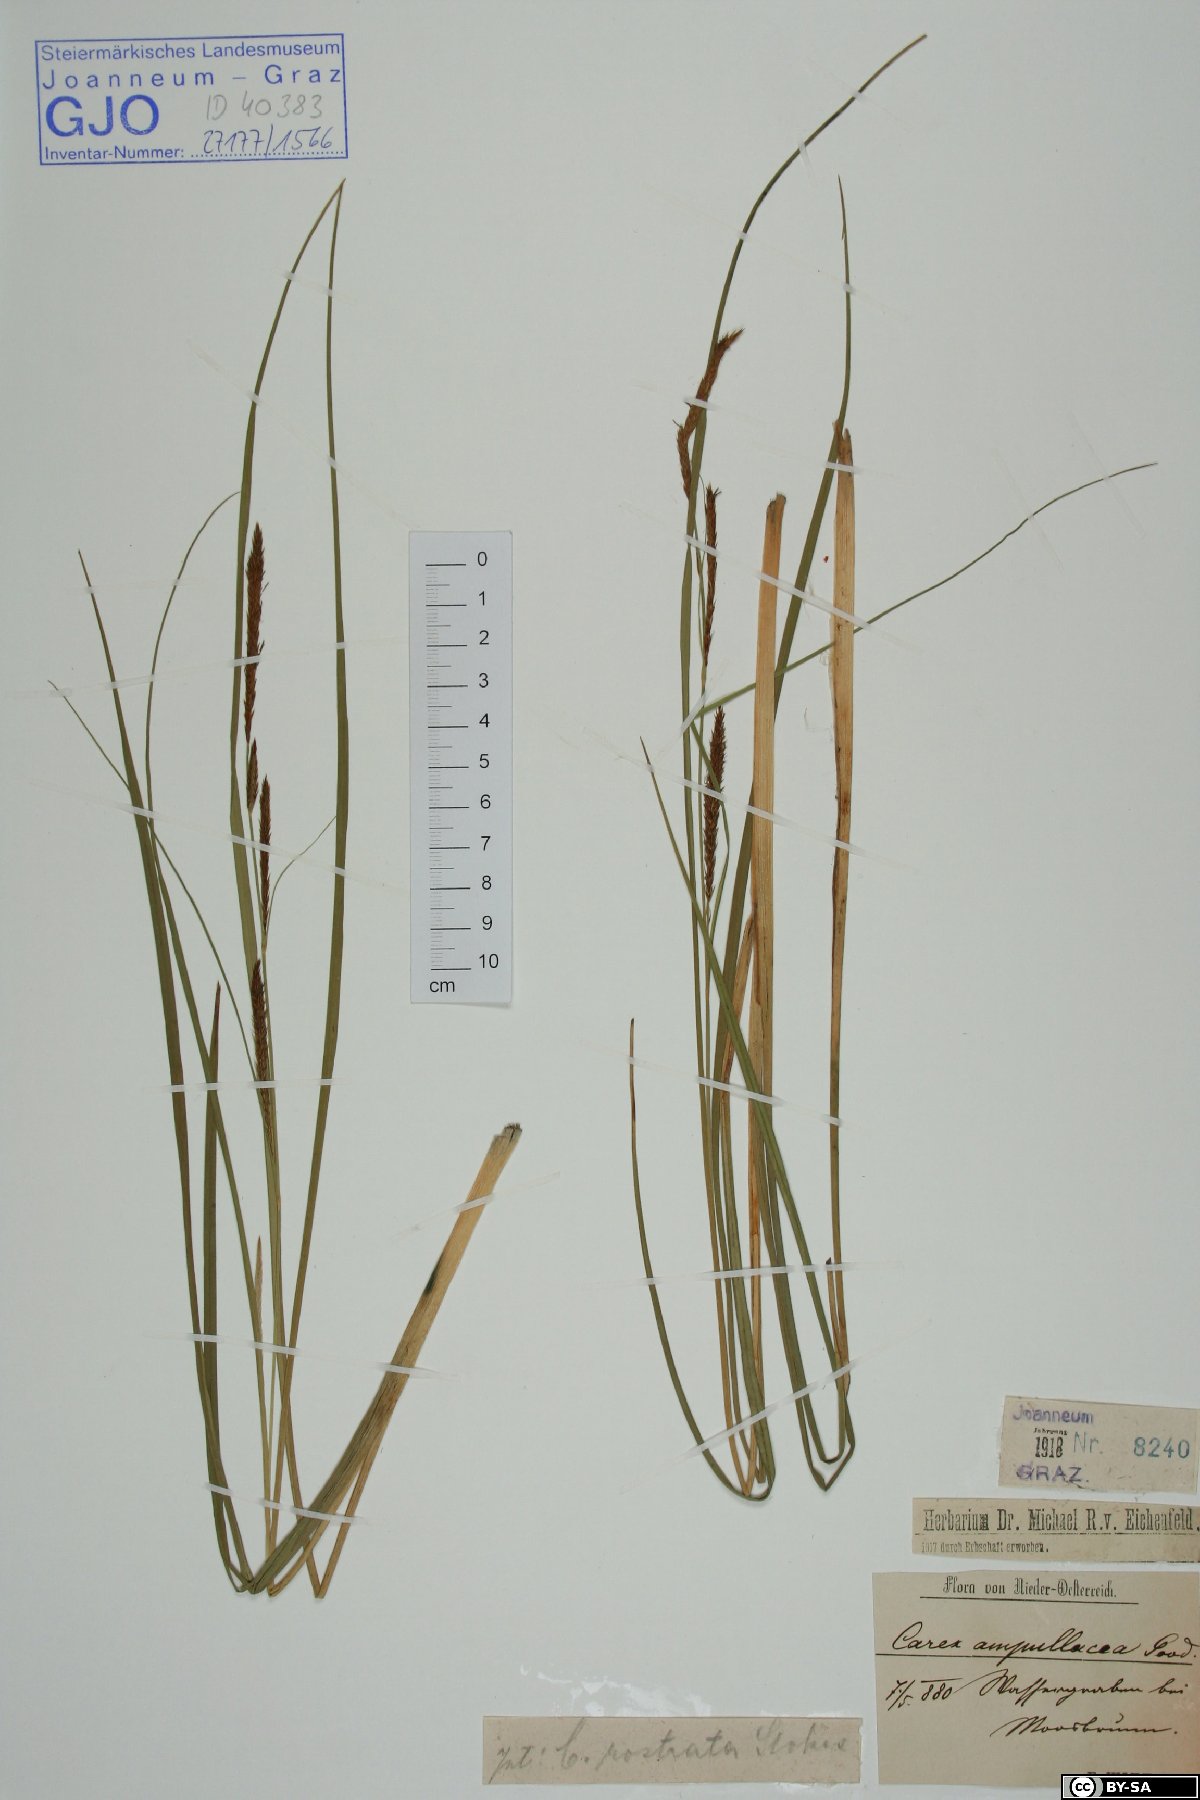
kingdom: Plantae
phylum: Tracheophyta
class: Liliopsida
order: Poales
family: Cyperaceae
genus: Carex
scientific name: Carex rostrata
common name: Bottle sedge
